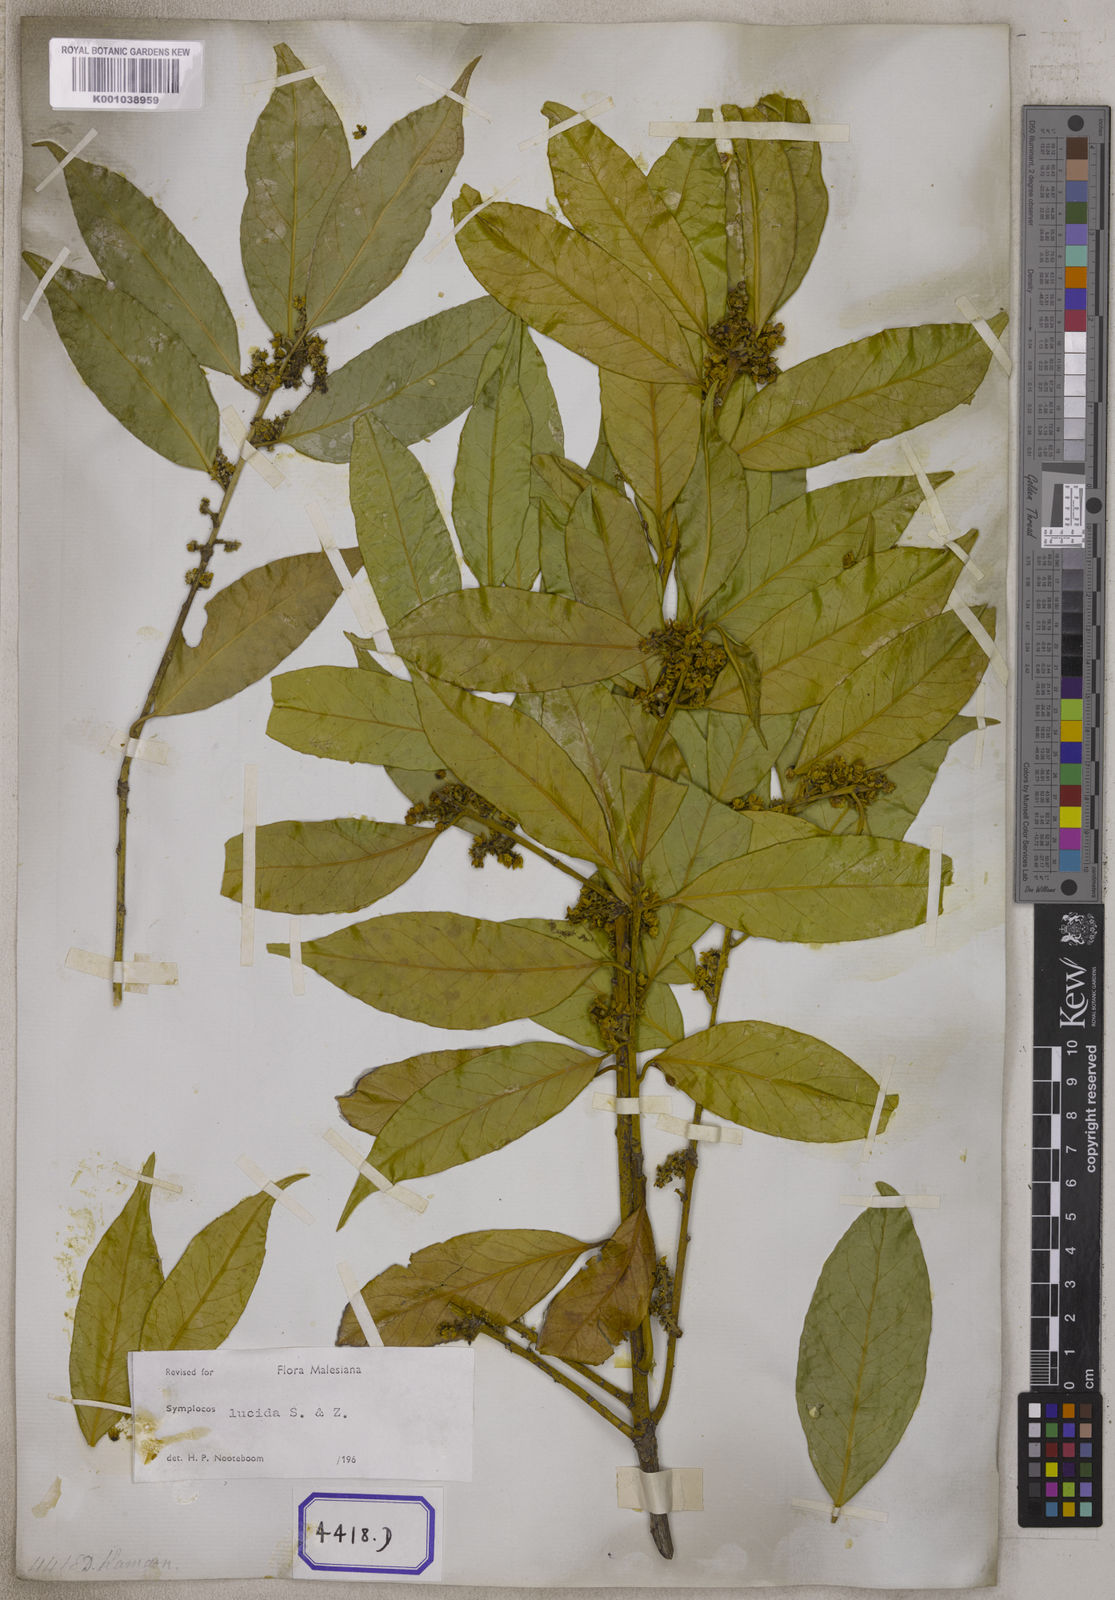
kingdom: Plantae
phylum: Tracheophyta
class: Magnoliopsida
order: Ericales
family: Symplocaceae
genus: Symplocos
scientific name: Symplocos racemosa
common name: Lodhtree
